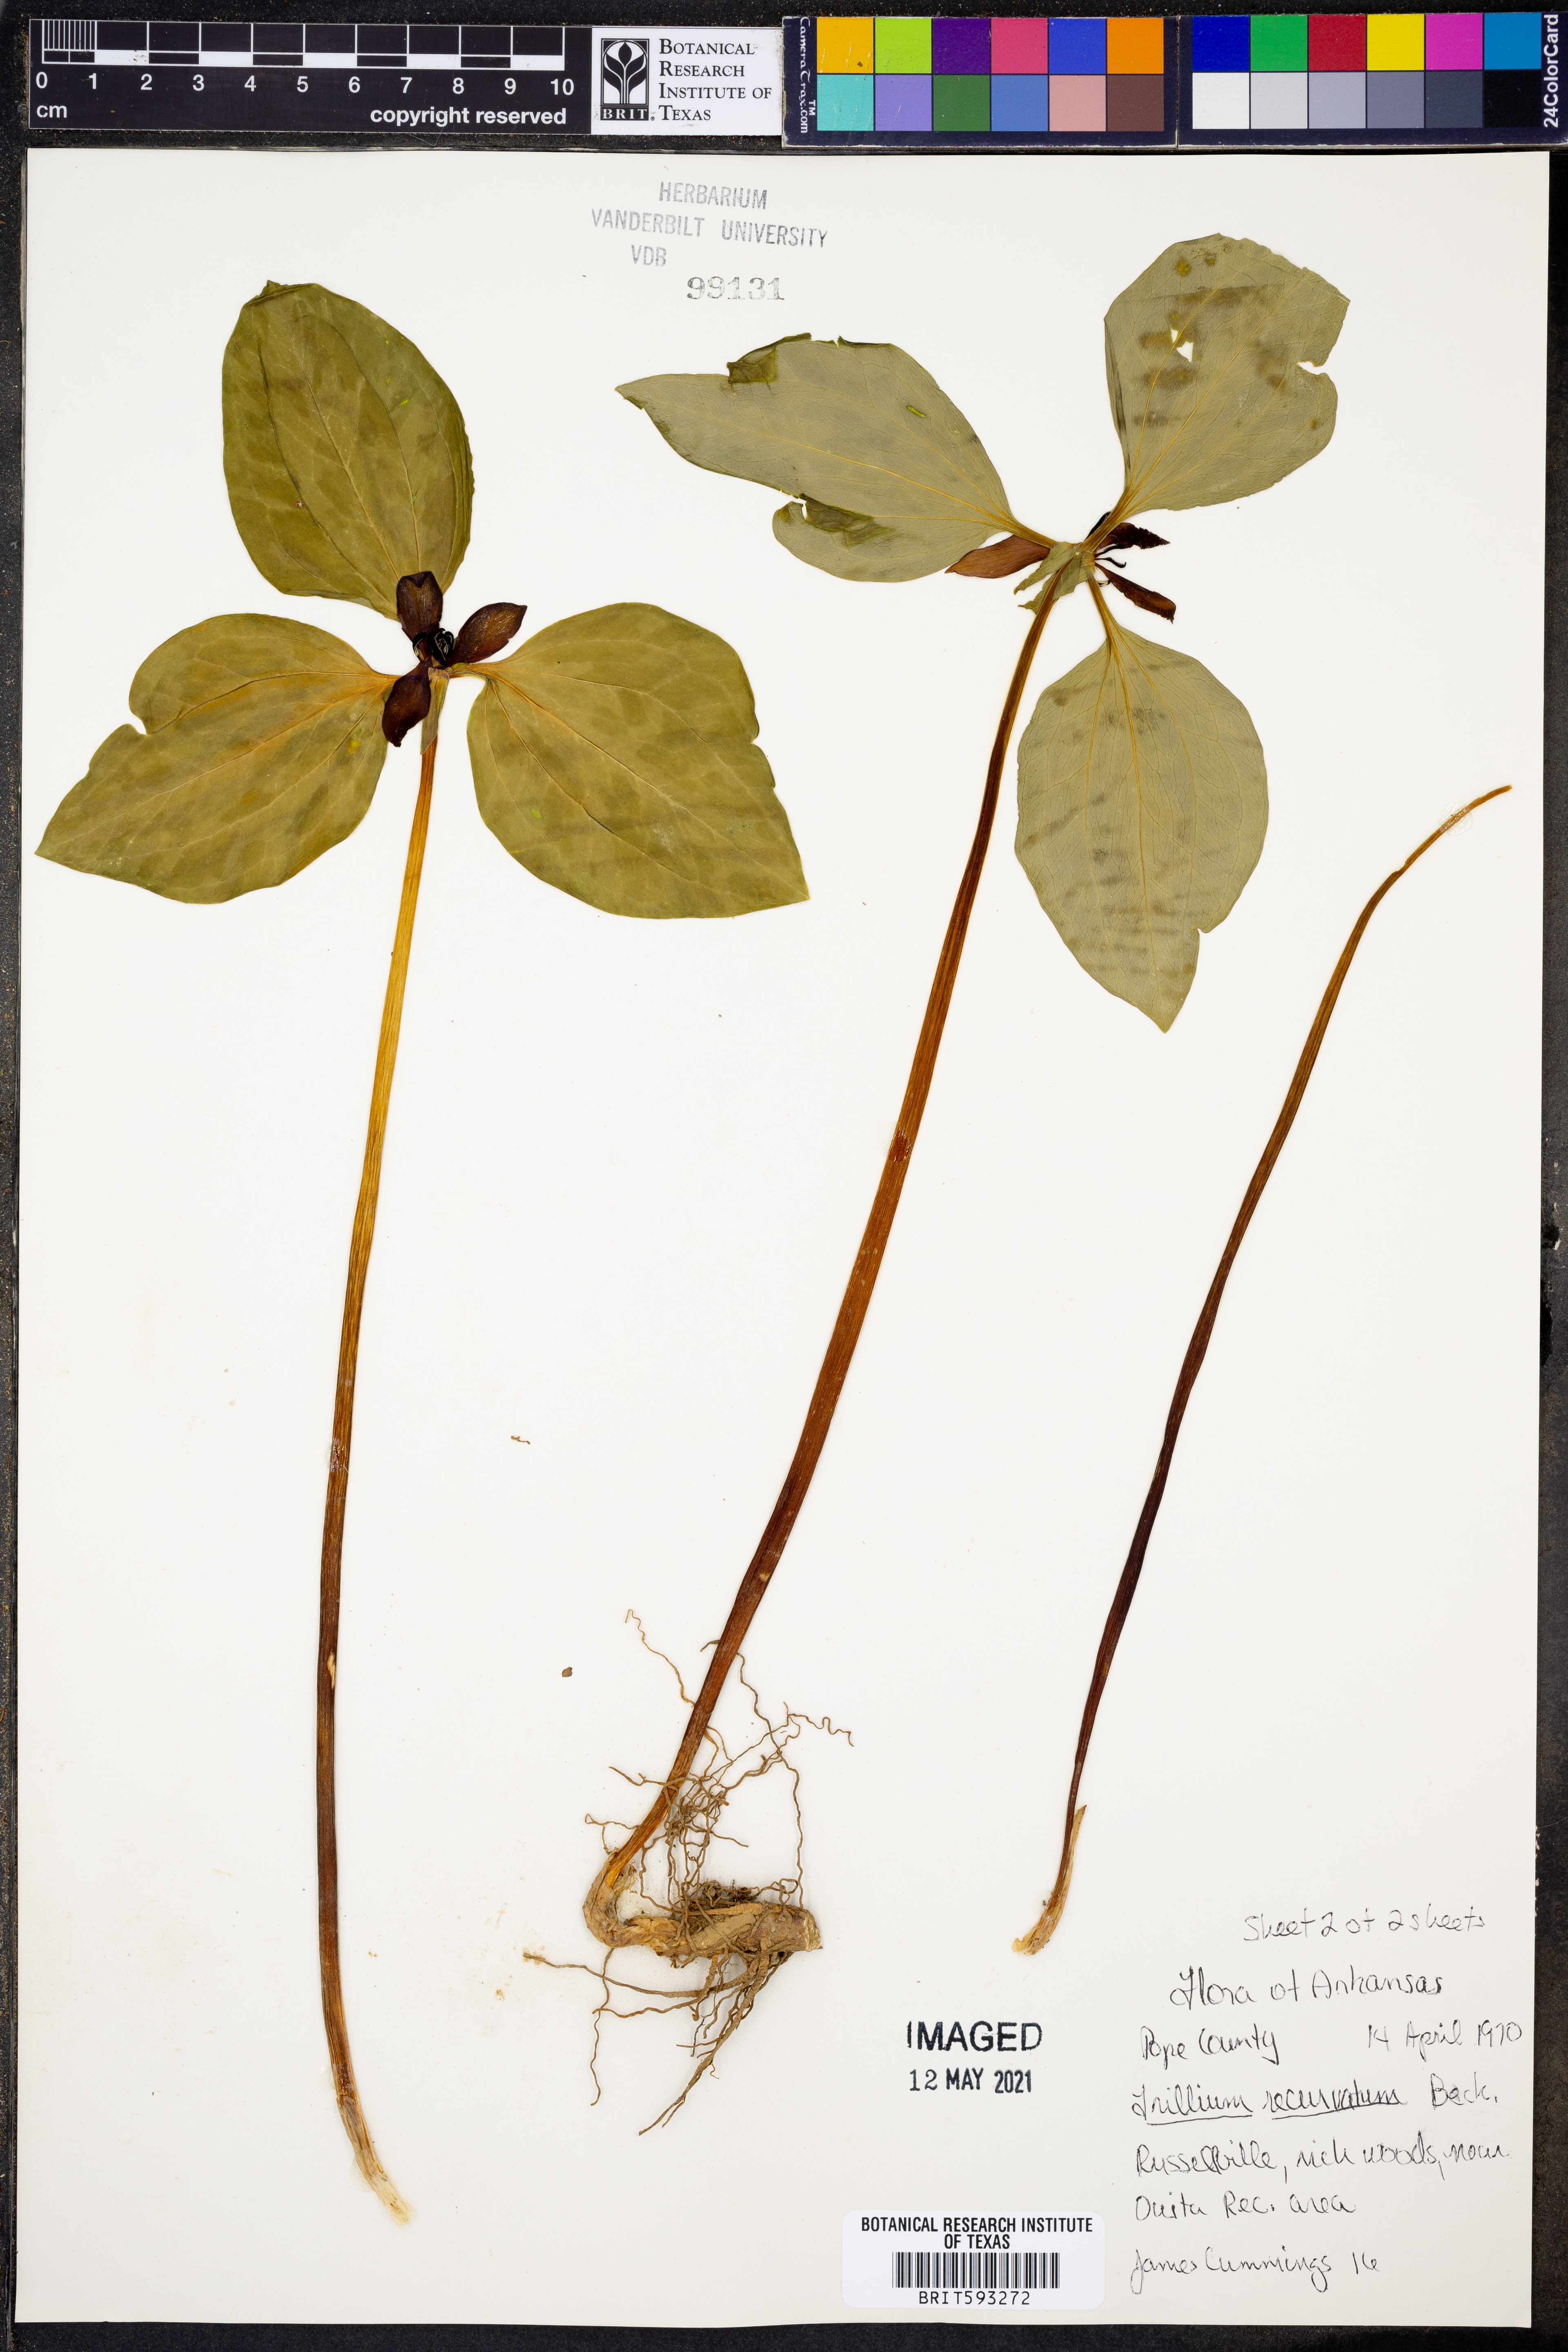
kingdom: Plantae
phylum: Tracheophyta
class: Liliopsida
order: Liliales
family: Melanthiaceae
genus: Trillium
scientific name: Trillium recurvatum
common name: Bloody butcher
